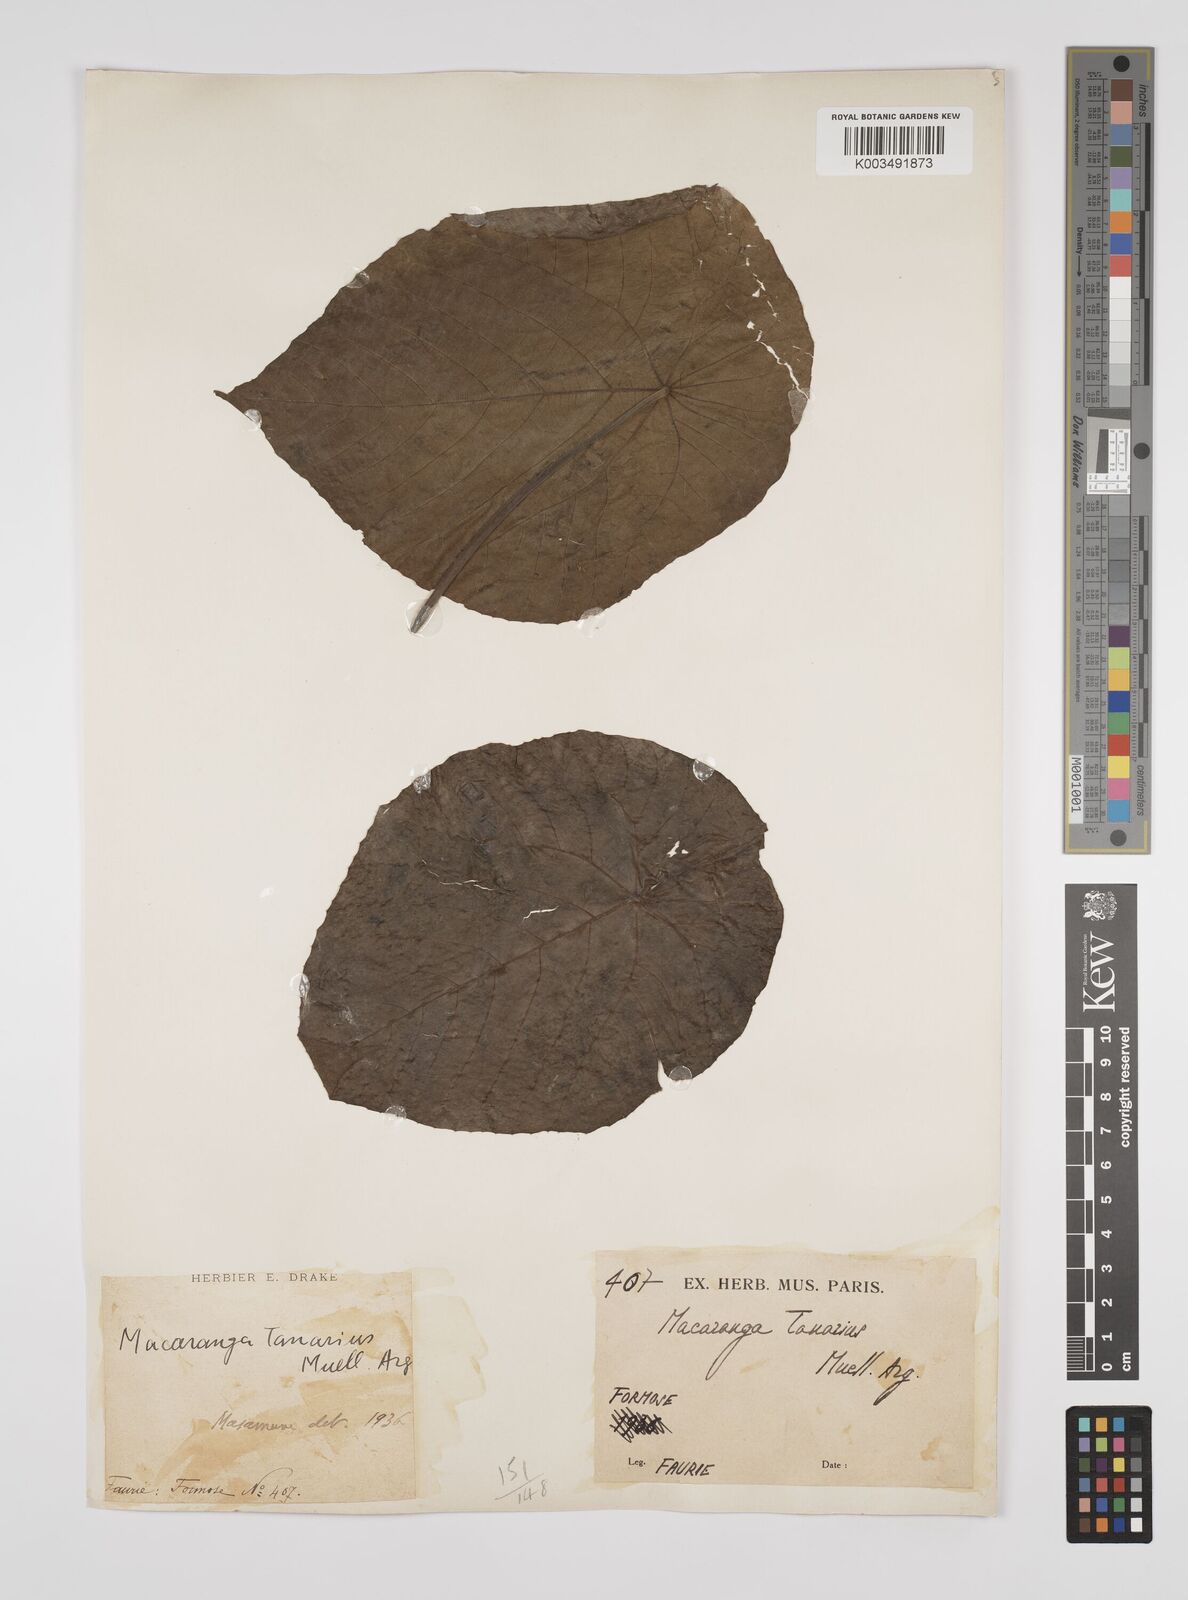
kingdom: Plantae
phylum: Tracheophyta
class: Magnoliopsida
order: Malpighiales
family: Euphorbiaceae
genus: Macaranga
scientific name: Macaranga tanarius
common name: Parasol leaf tree
